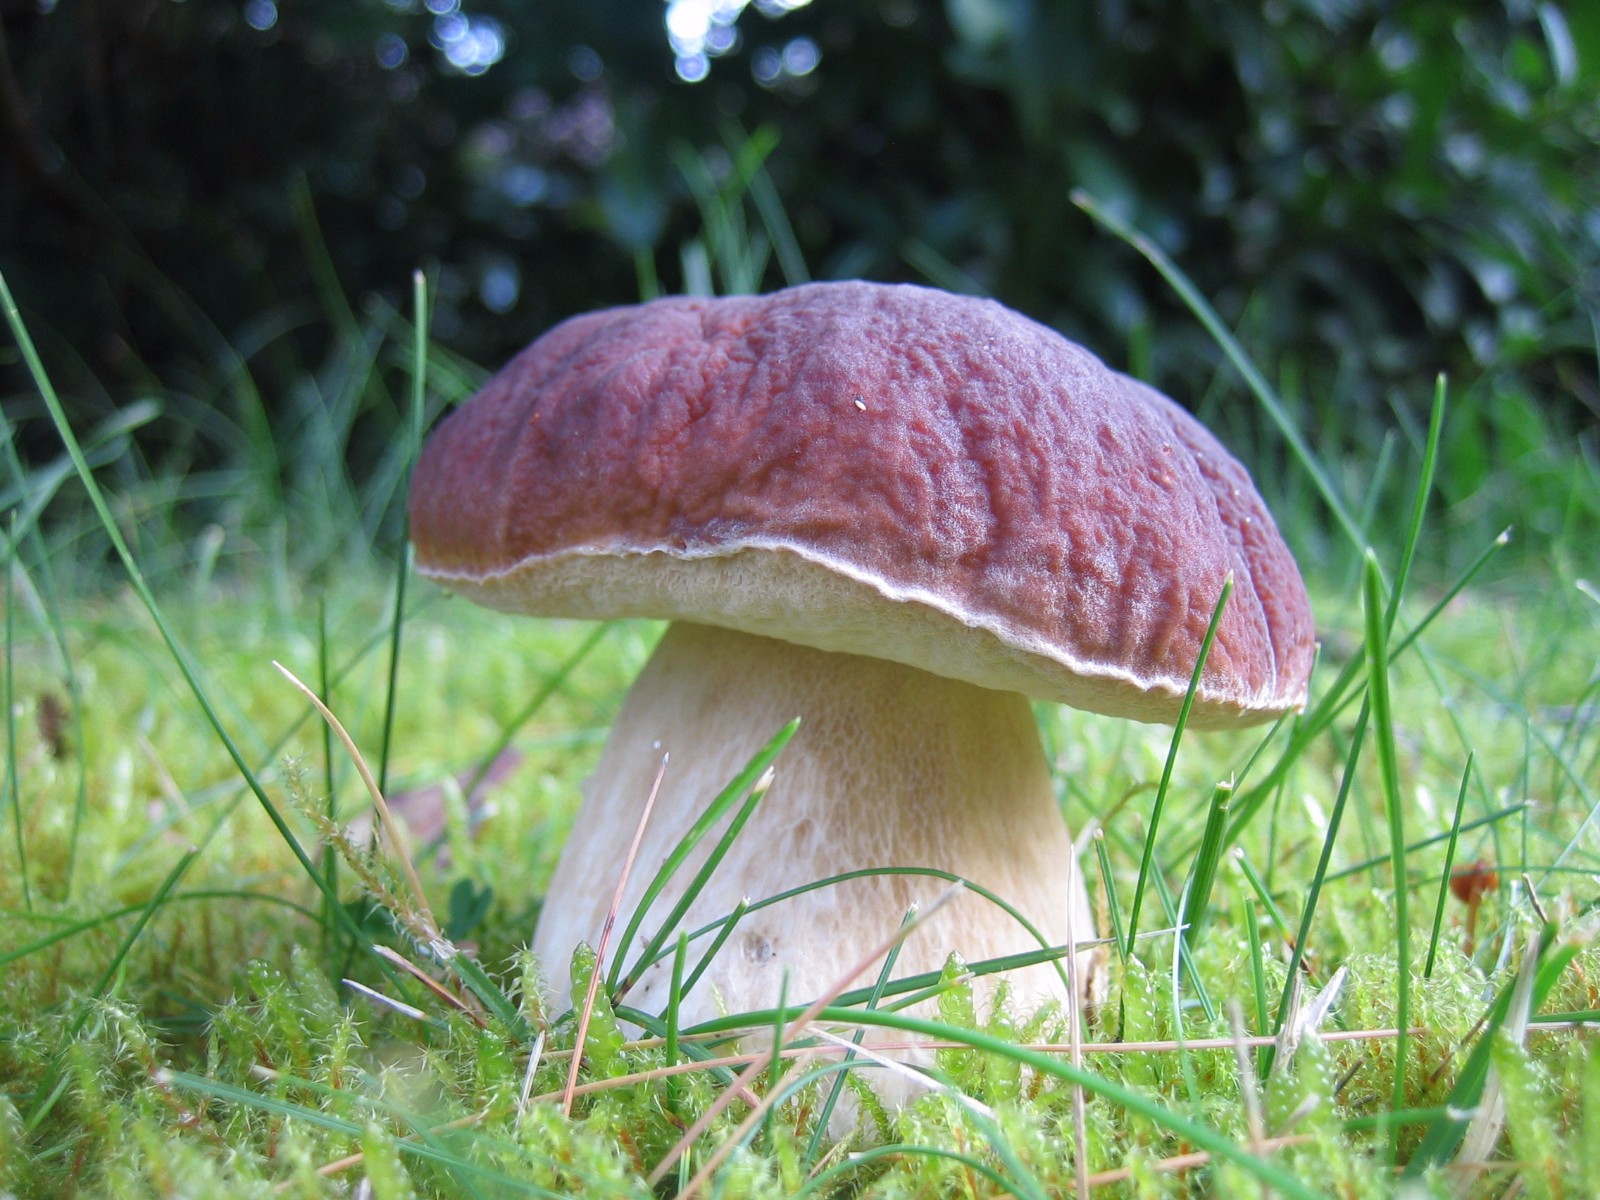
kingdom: Fungi
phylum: Basidiomycota
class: Agaricomycetes
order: Boletales
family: Boletaceae
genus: Boletus
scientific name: Boletus edulis
